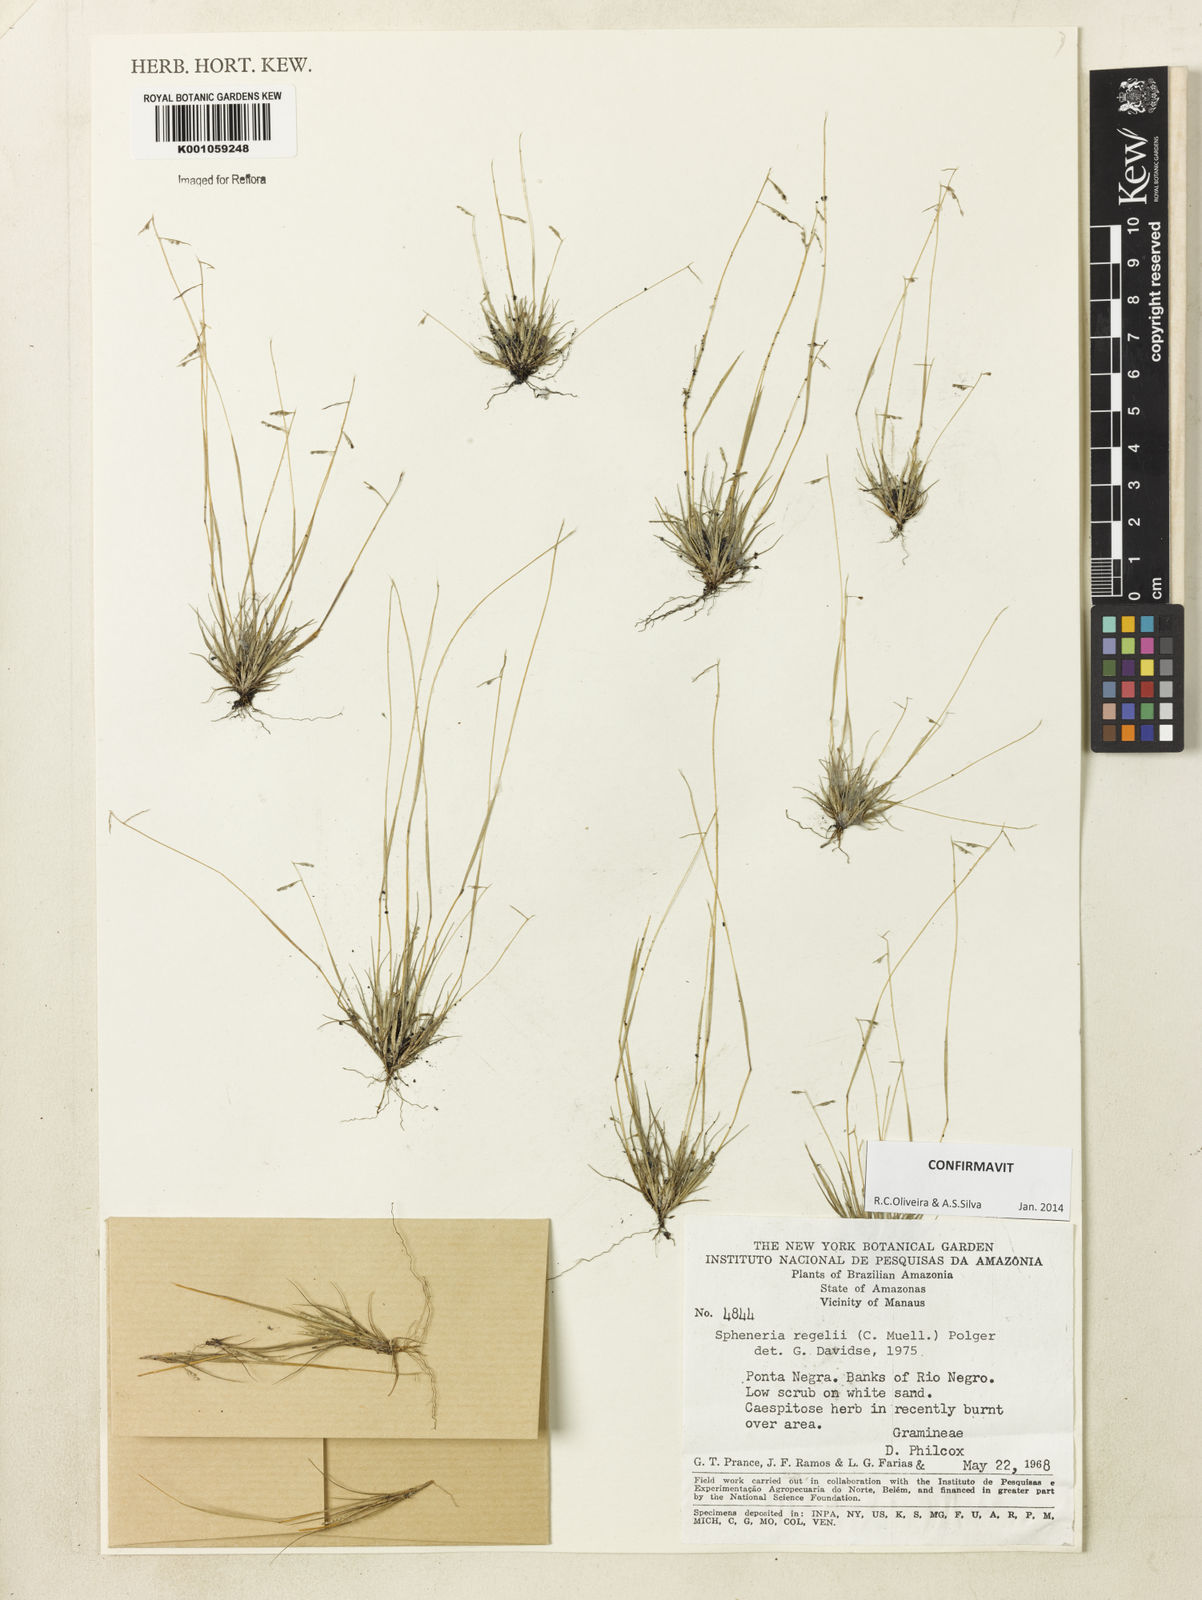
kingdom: Plantae
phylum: Tracheophyta
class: Liliopsida
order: Poales
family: Poaceae
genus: Spheneria
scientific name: Spheneria
